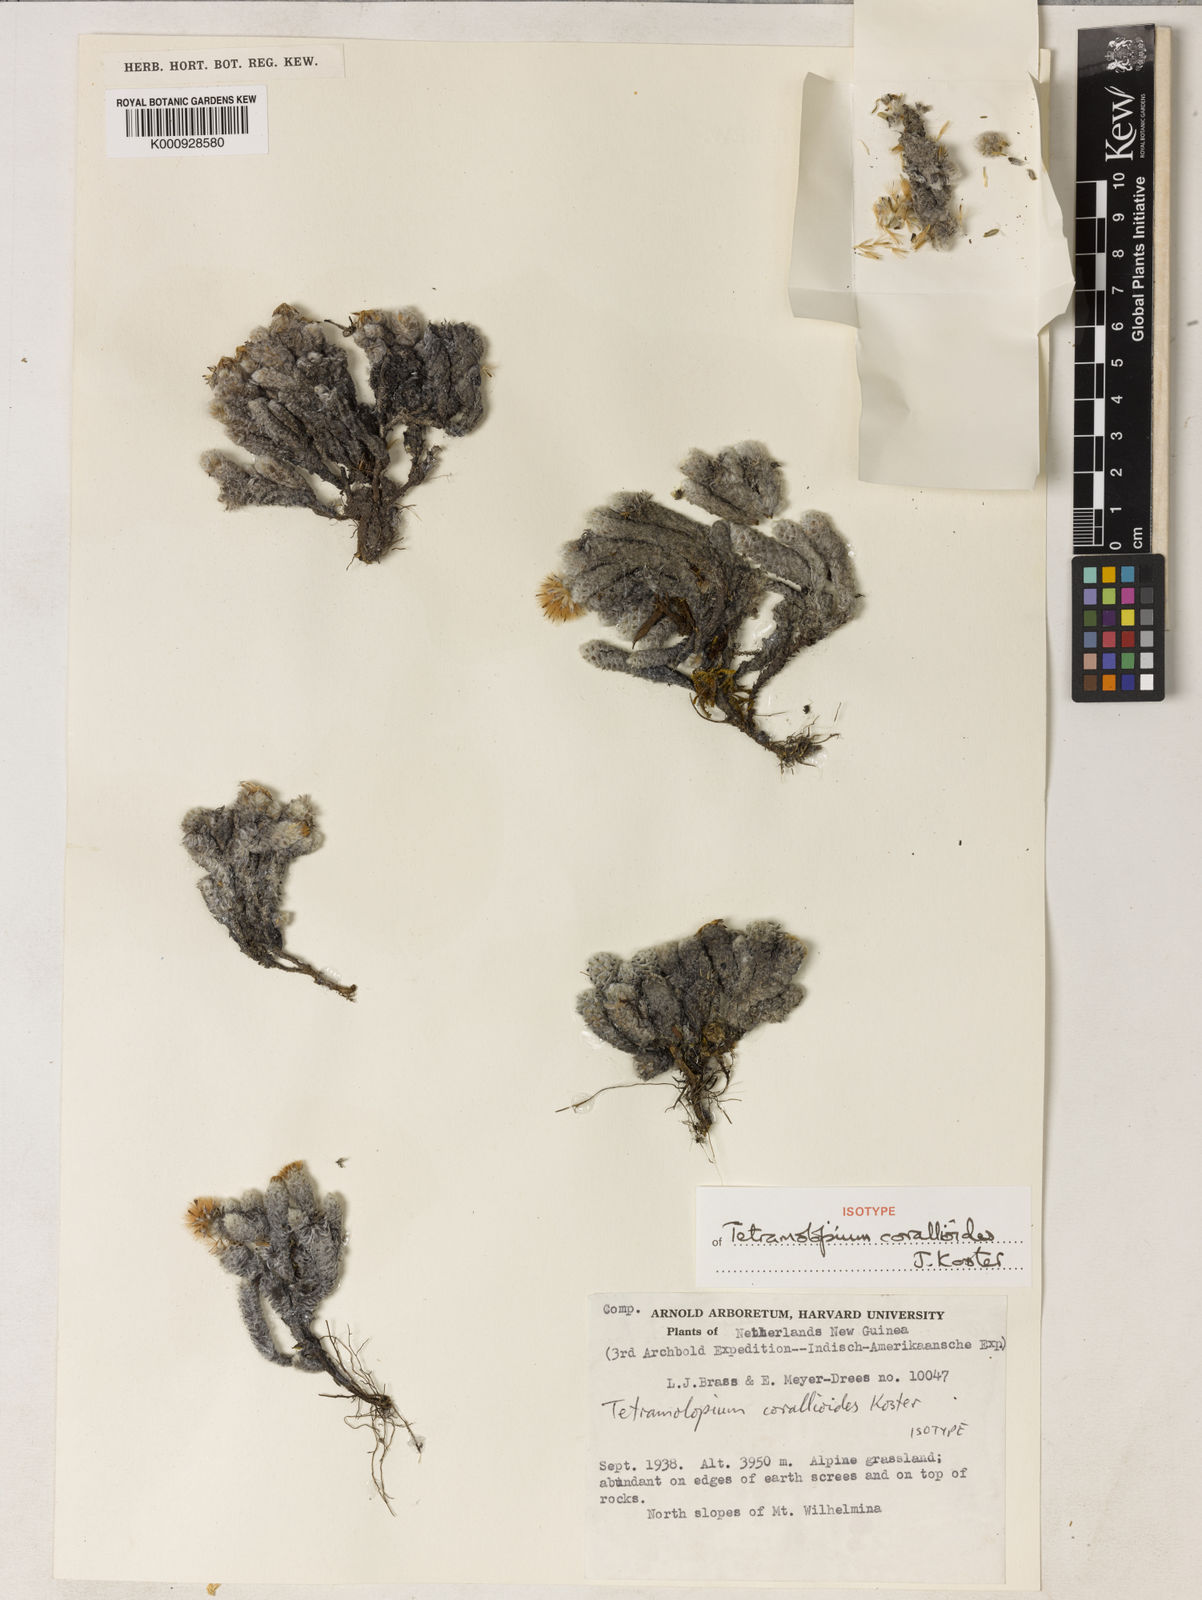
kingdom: Plantae
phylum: Tracheophyta
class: Magnoliopsida
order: Asterales
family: Asteraceae
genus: Tetramolopium
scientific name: Tetramolopium corallioides
